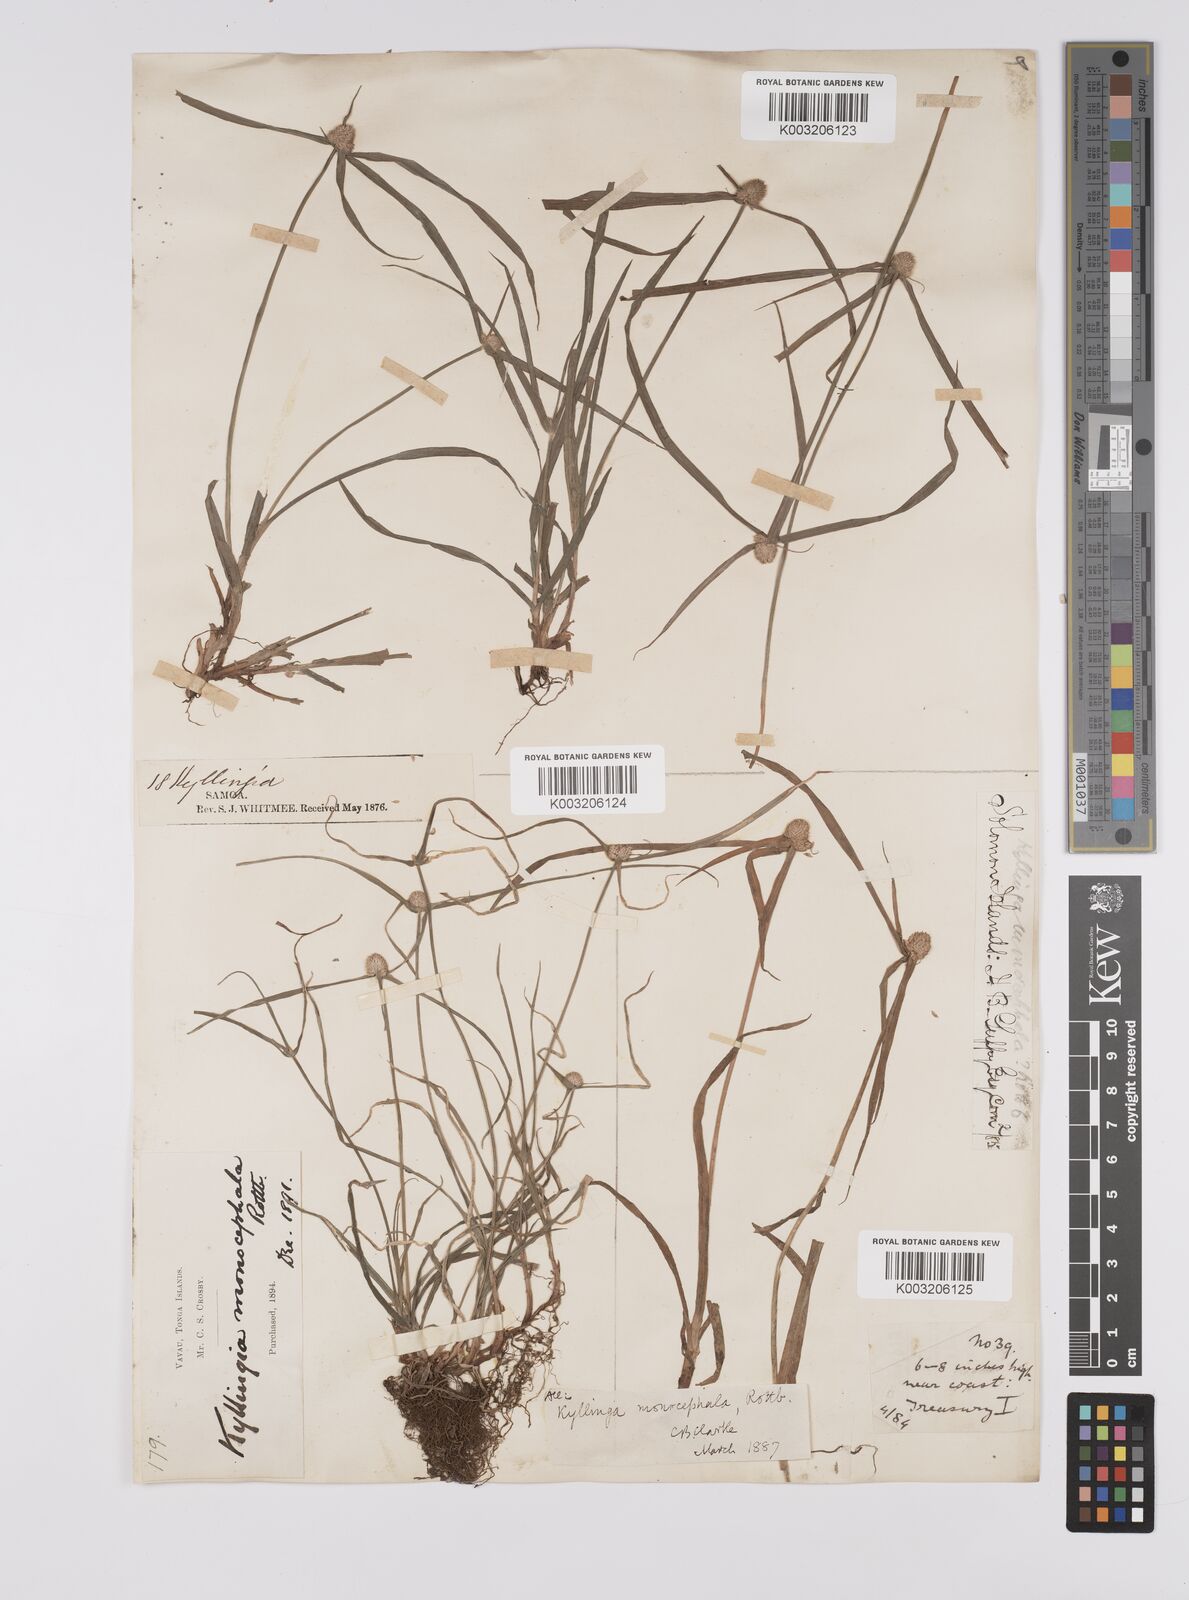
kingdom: Plantae
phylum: Tracheophyta
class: Liliopsida
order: Poales
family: Cyperaceae
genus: Cyperus
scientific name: Cyperus nemoralis
